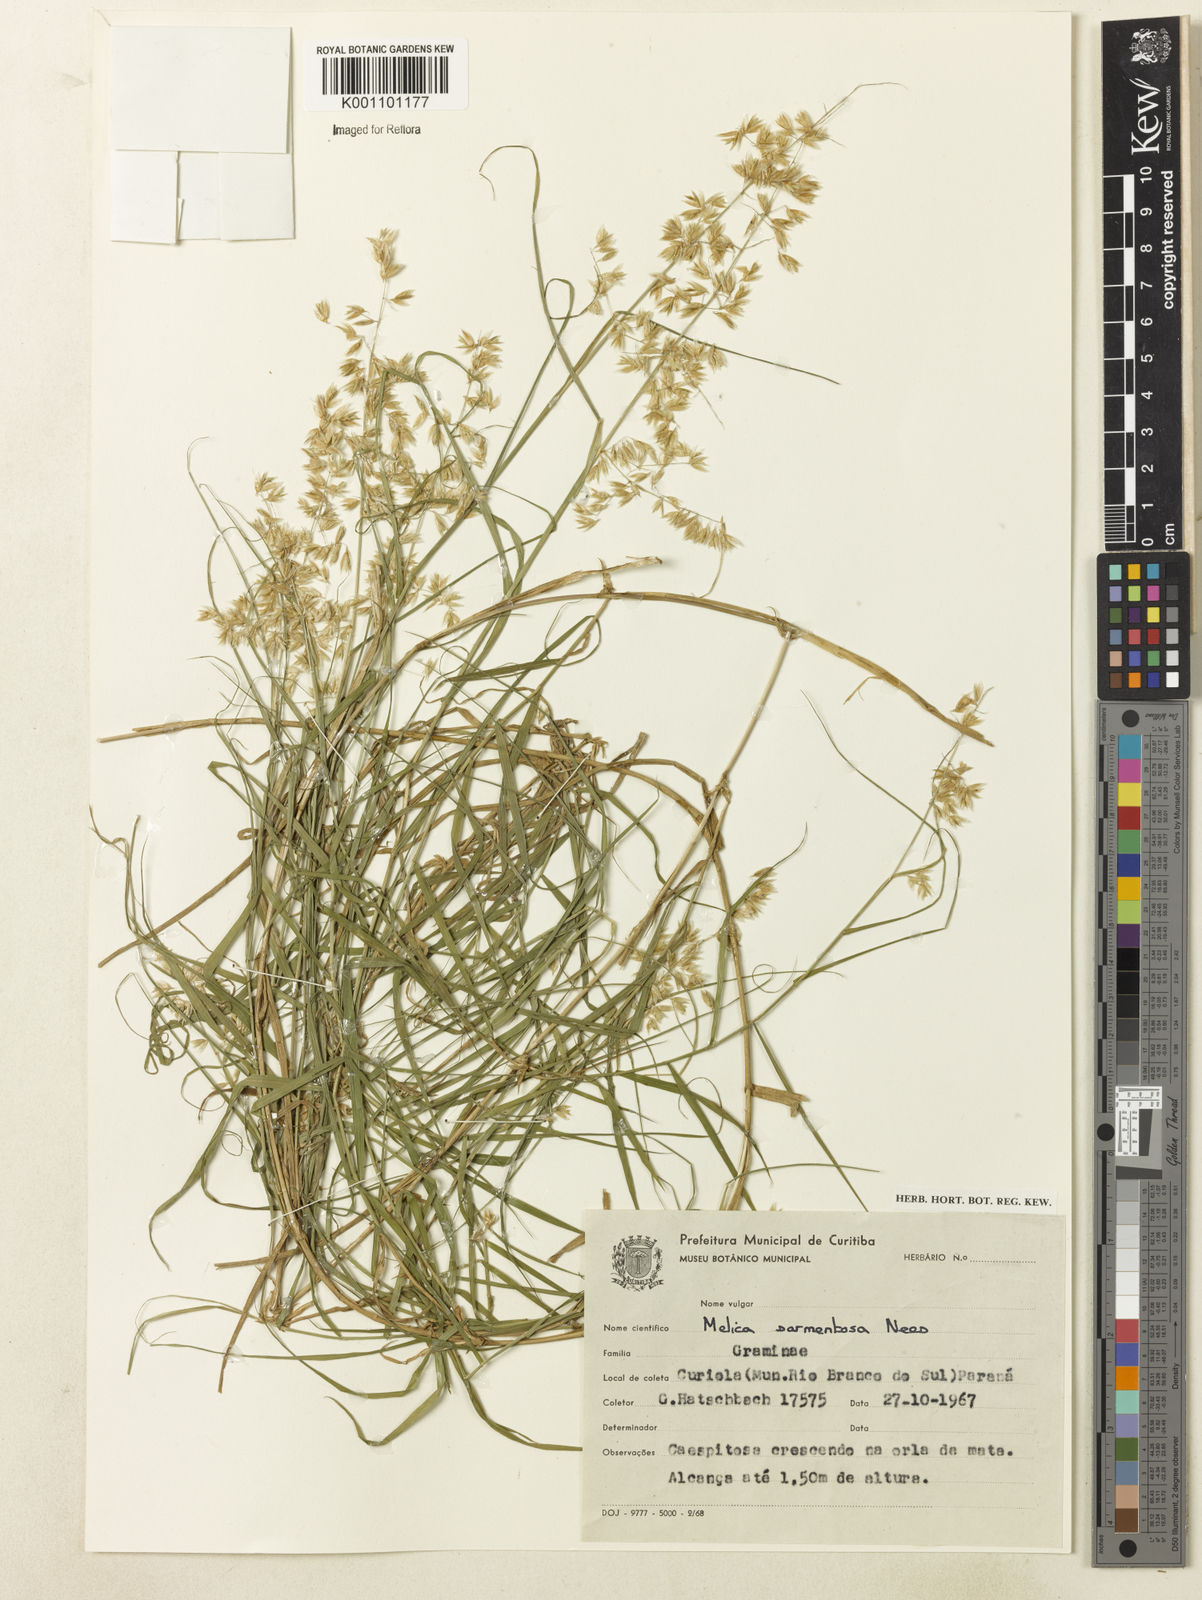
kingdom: Plantae
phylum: Tracheophyta
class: Liliopsida
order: Poales
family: Poaceae
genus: Melica
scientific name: Melica sarmentosa
